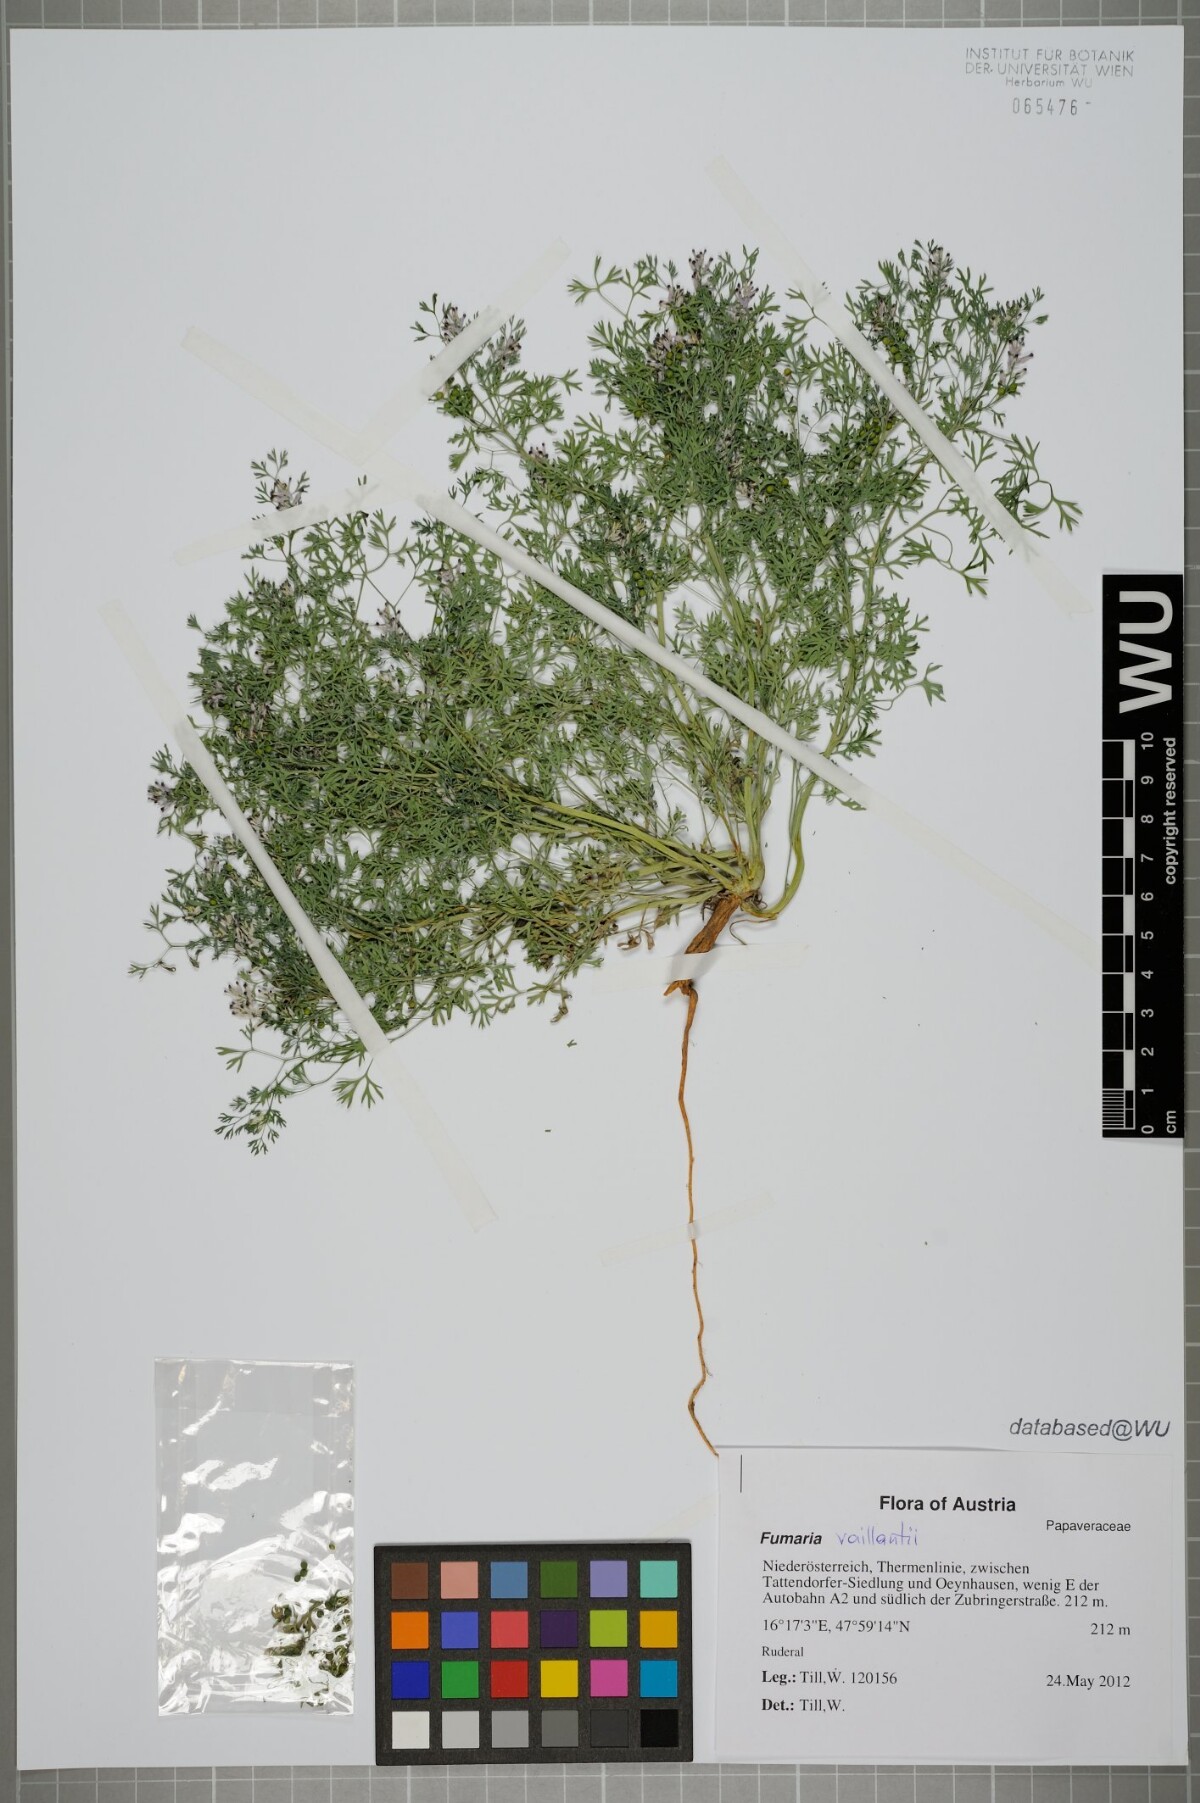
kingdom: Plantae
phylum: Tracheophyta
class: Magnoliopsida
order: Ranunculales
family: Papaveraceae
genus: Fumaria
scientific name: Fumaria vaillantii
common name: Few-flowered fumitory
